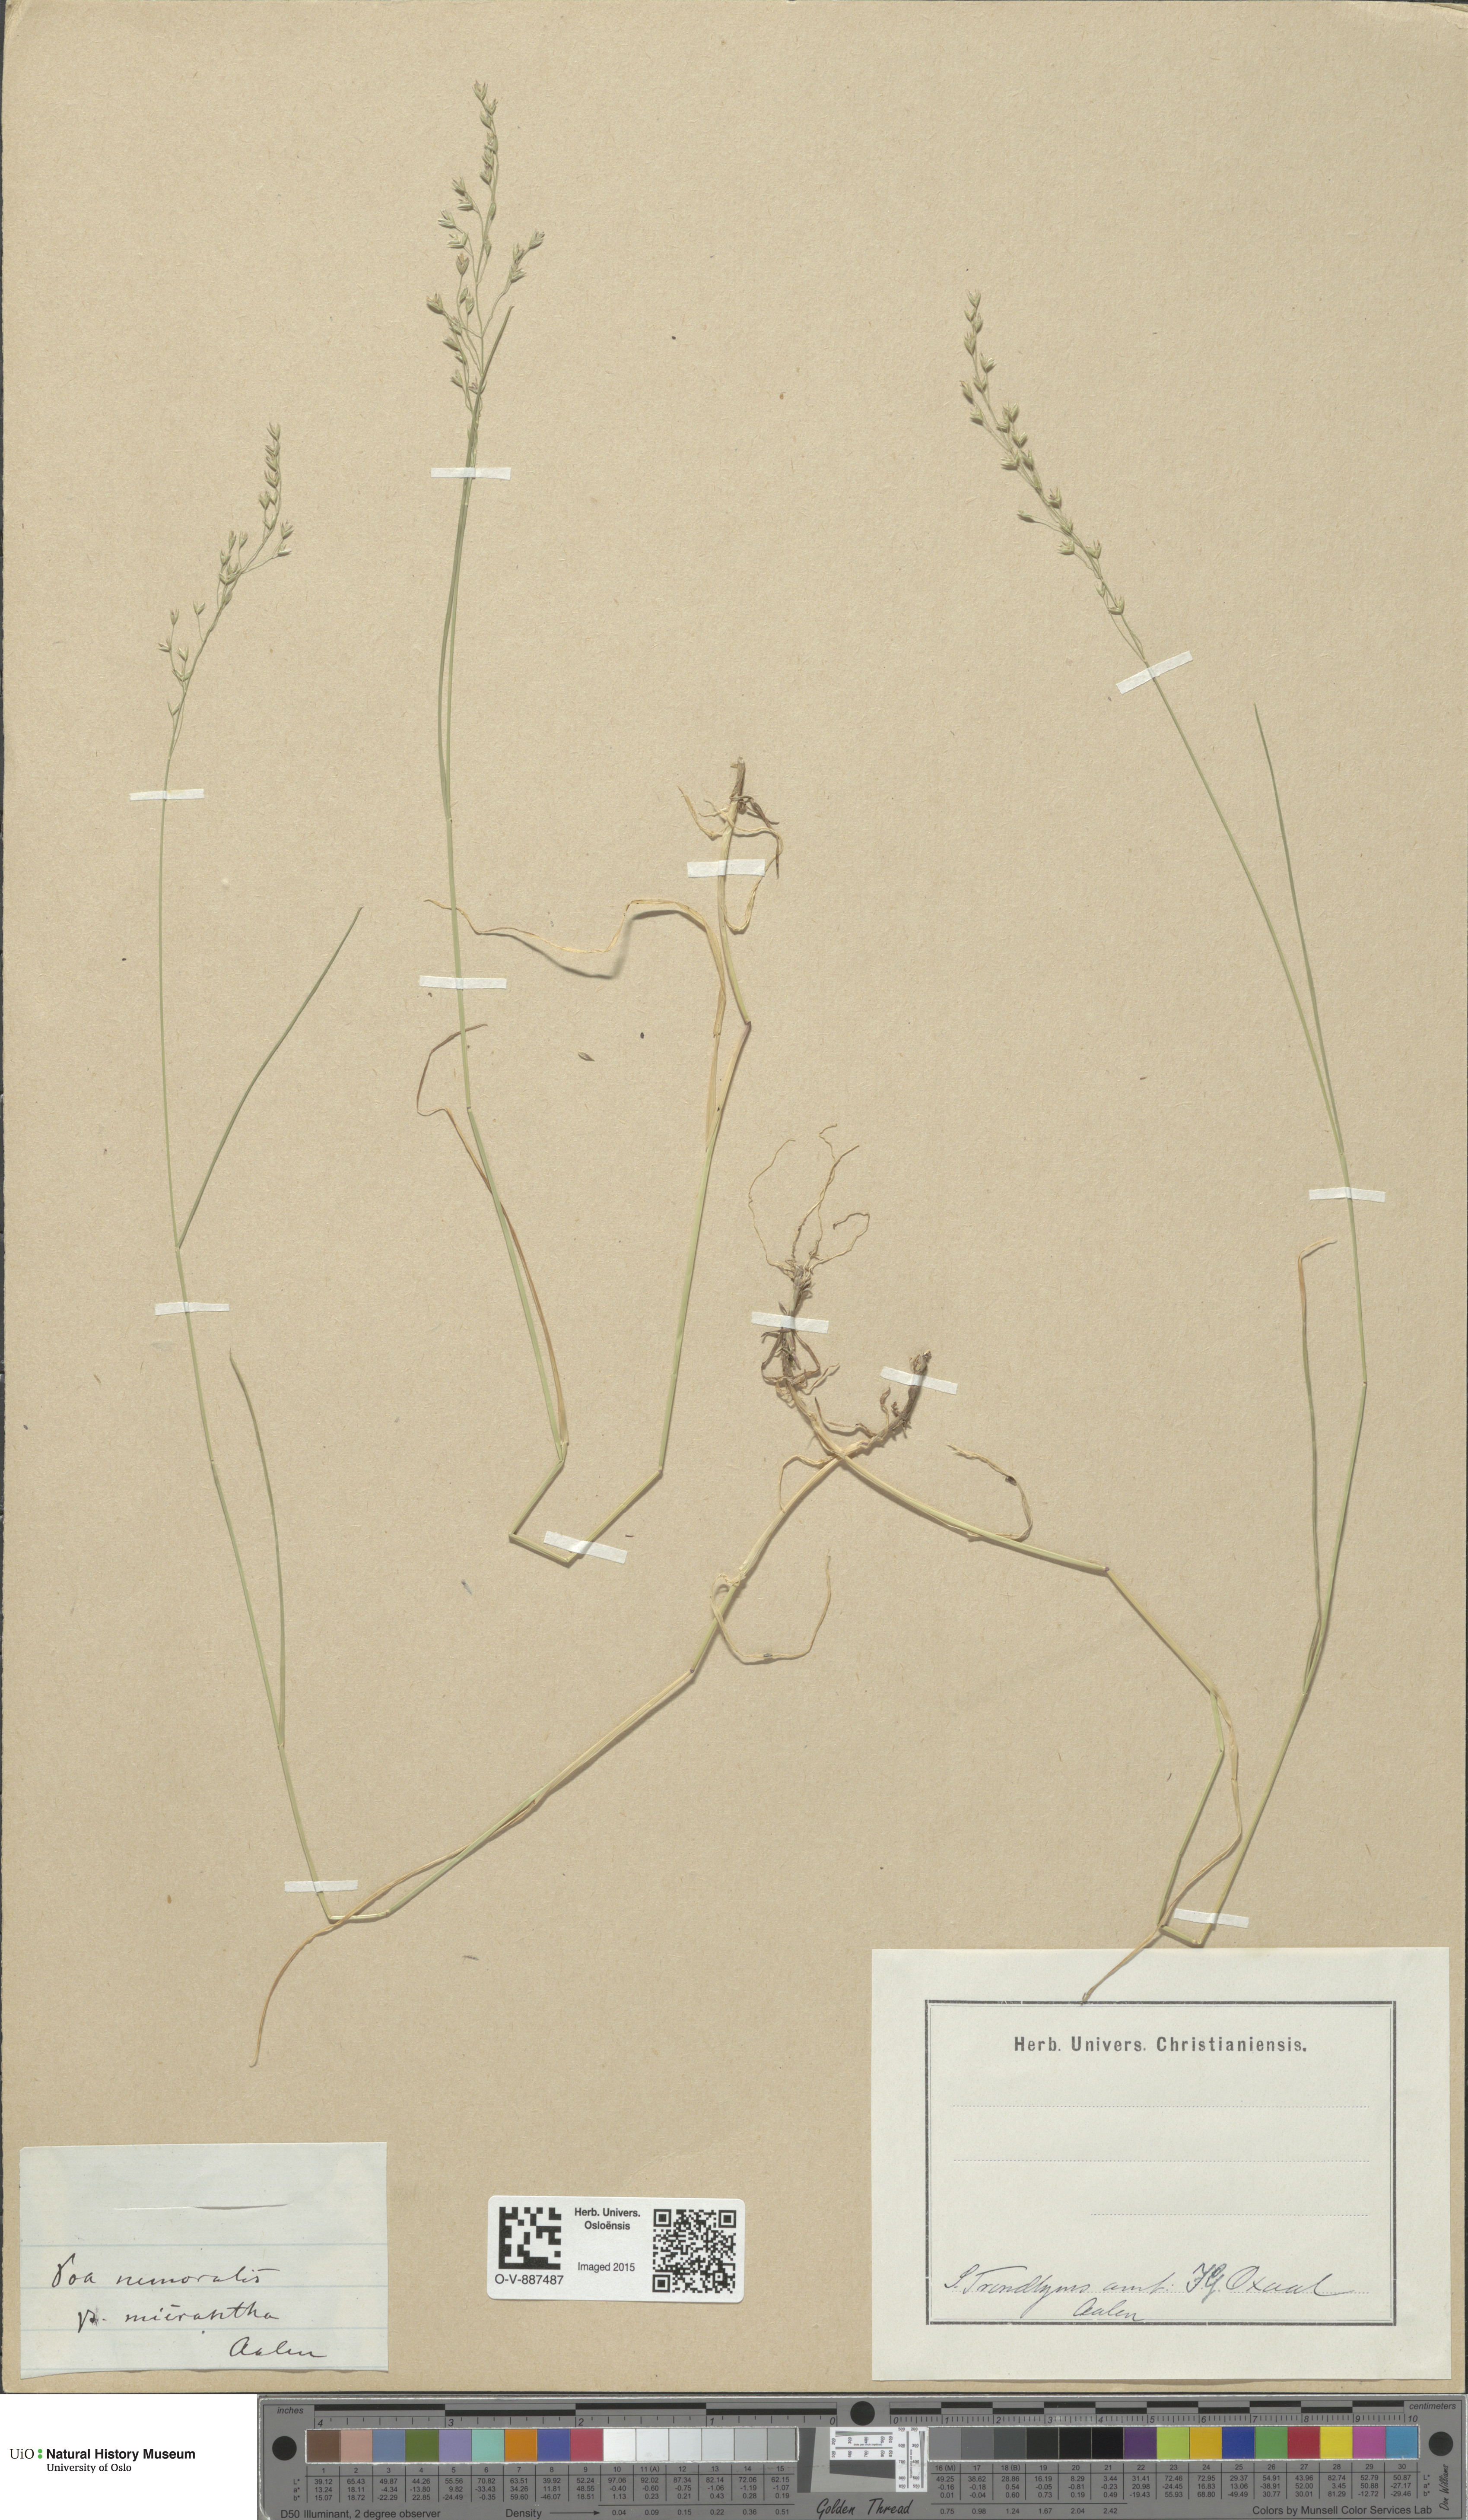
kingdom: Plantae
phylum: Tracheophyta
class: Liliopsida
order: Poales
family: Poaceae
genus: Poa
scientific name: Poa nemoralis
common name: Wood bluegrass
